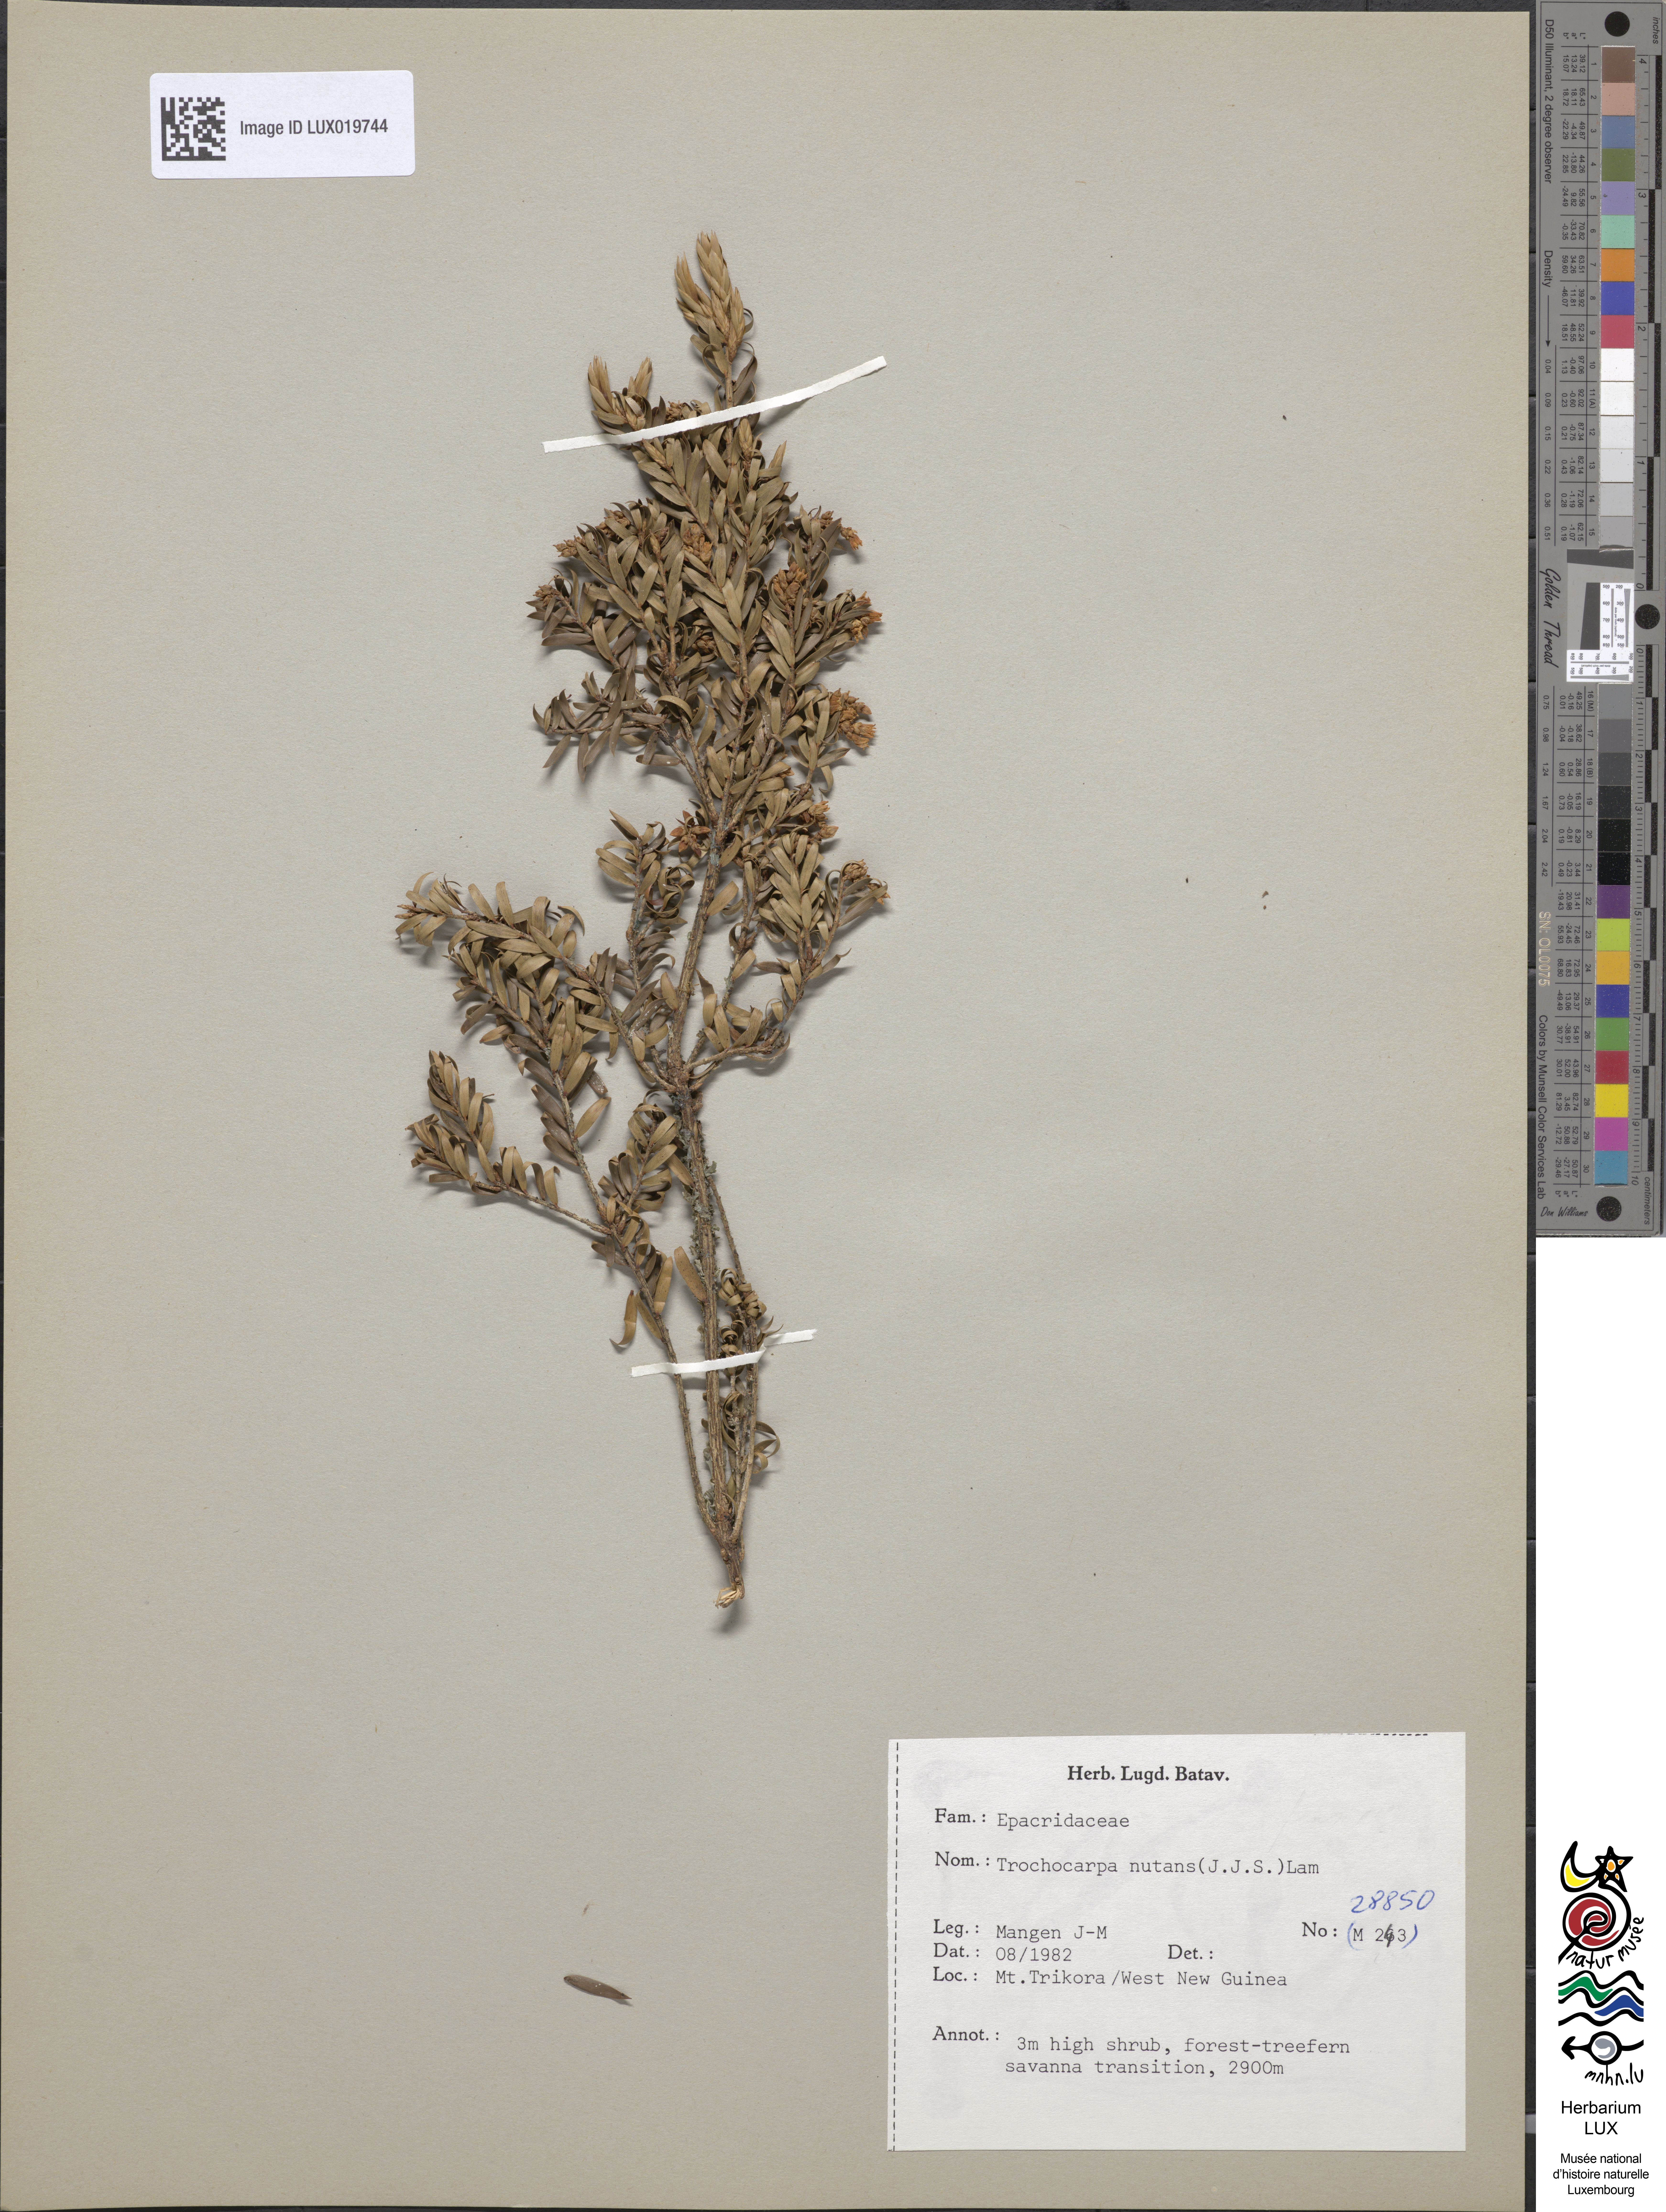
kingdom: Plantae
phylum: Tracheophyta
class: Magnoliopsida
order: Ericales
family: Ericaceae
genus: Trochocarpa
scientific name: Trochocarpa nutans
